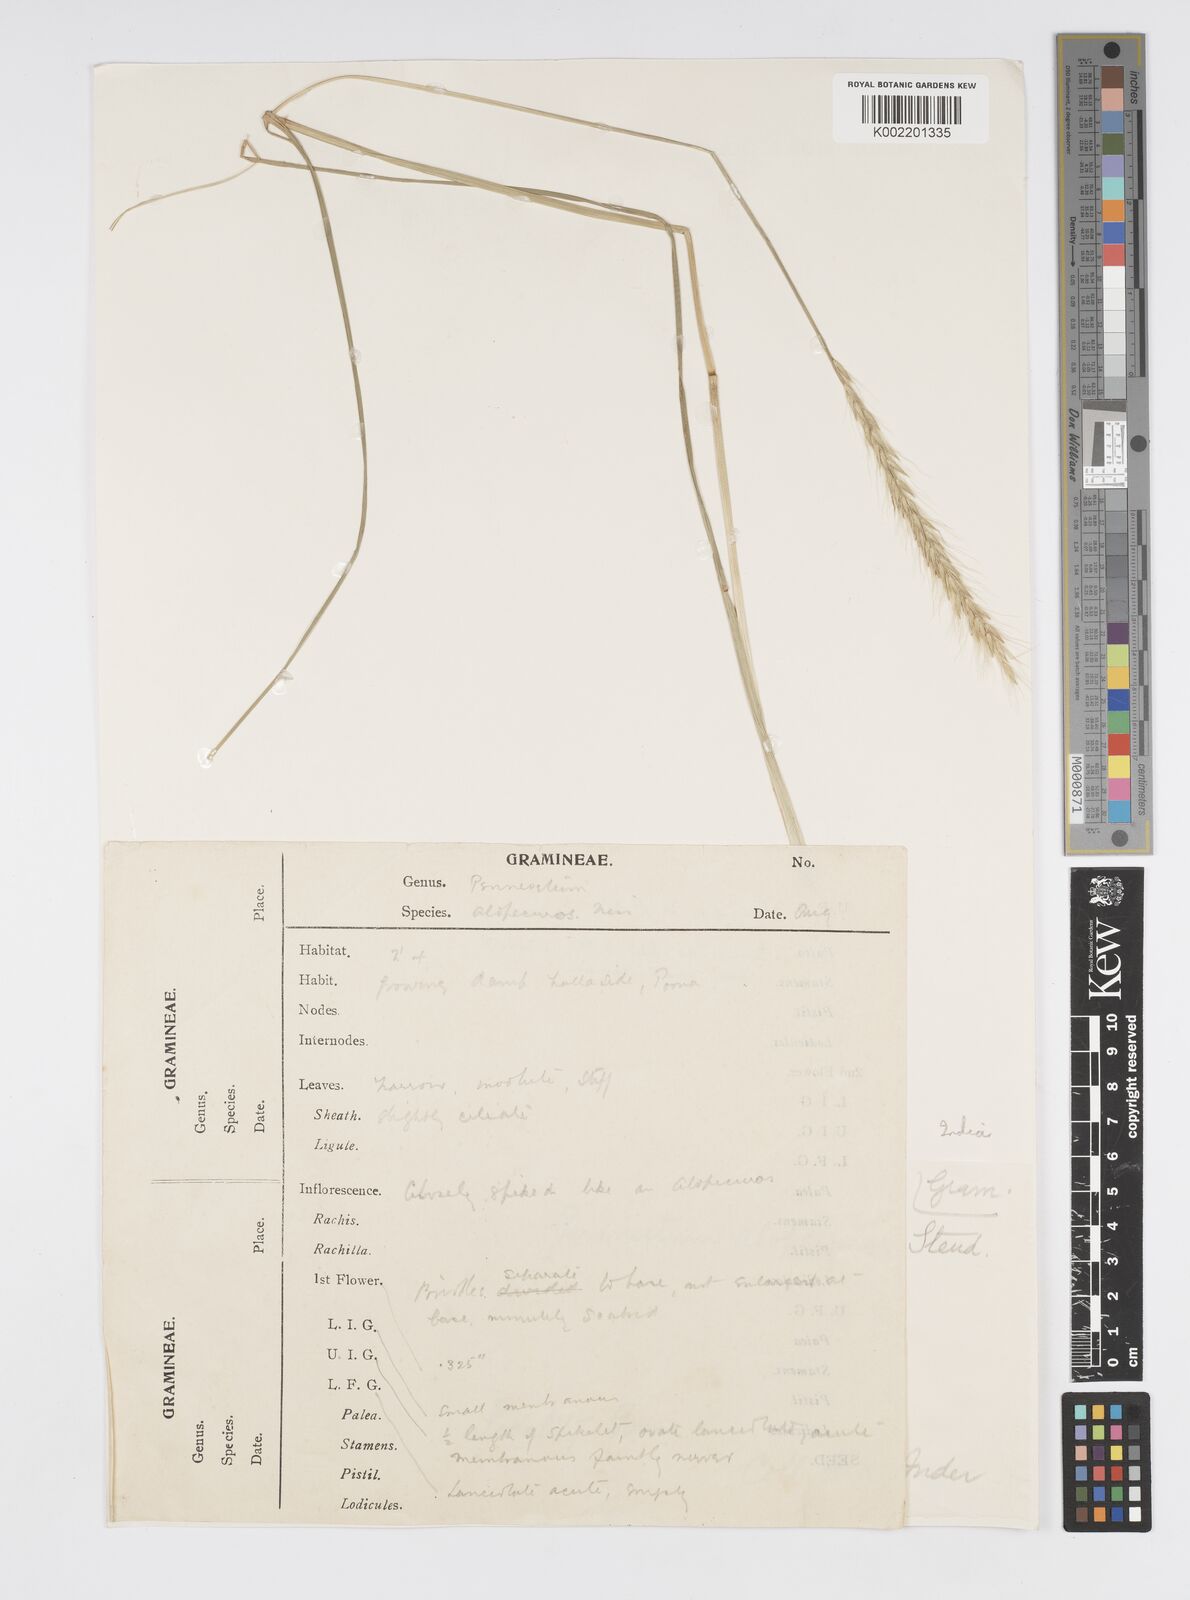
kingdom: Plantae
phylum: Tracheophyta
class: Liliopsida
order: Poales
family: Poaceae
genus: Cenchrus
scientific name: Cenchrus hohenackeri
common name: Moya grass
